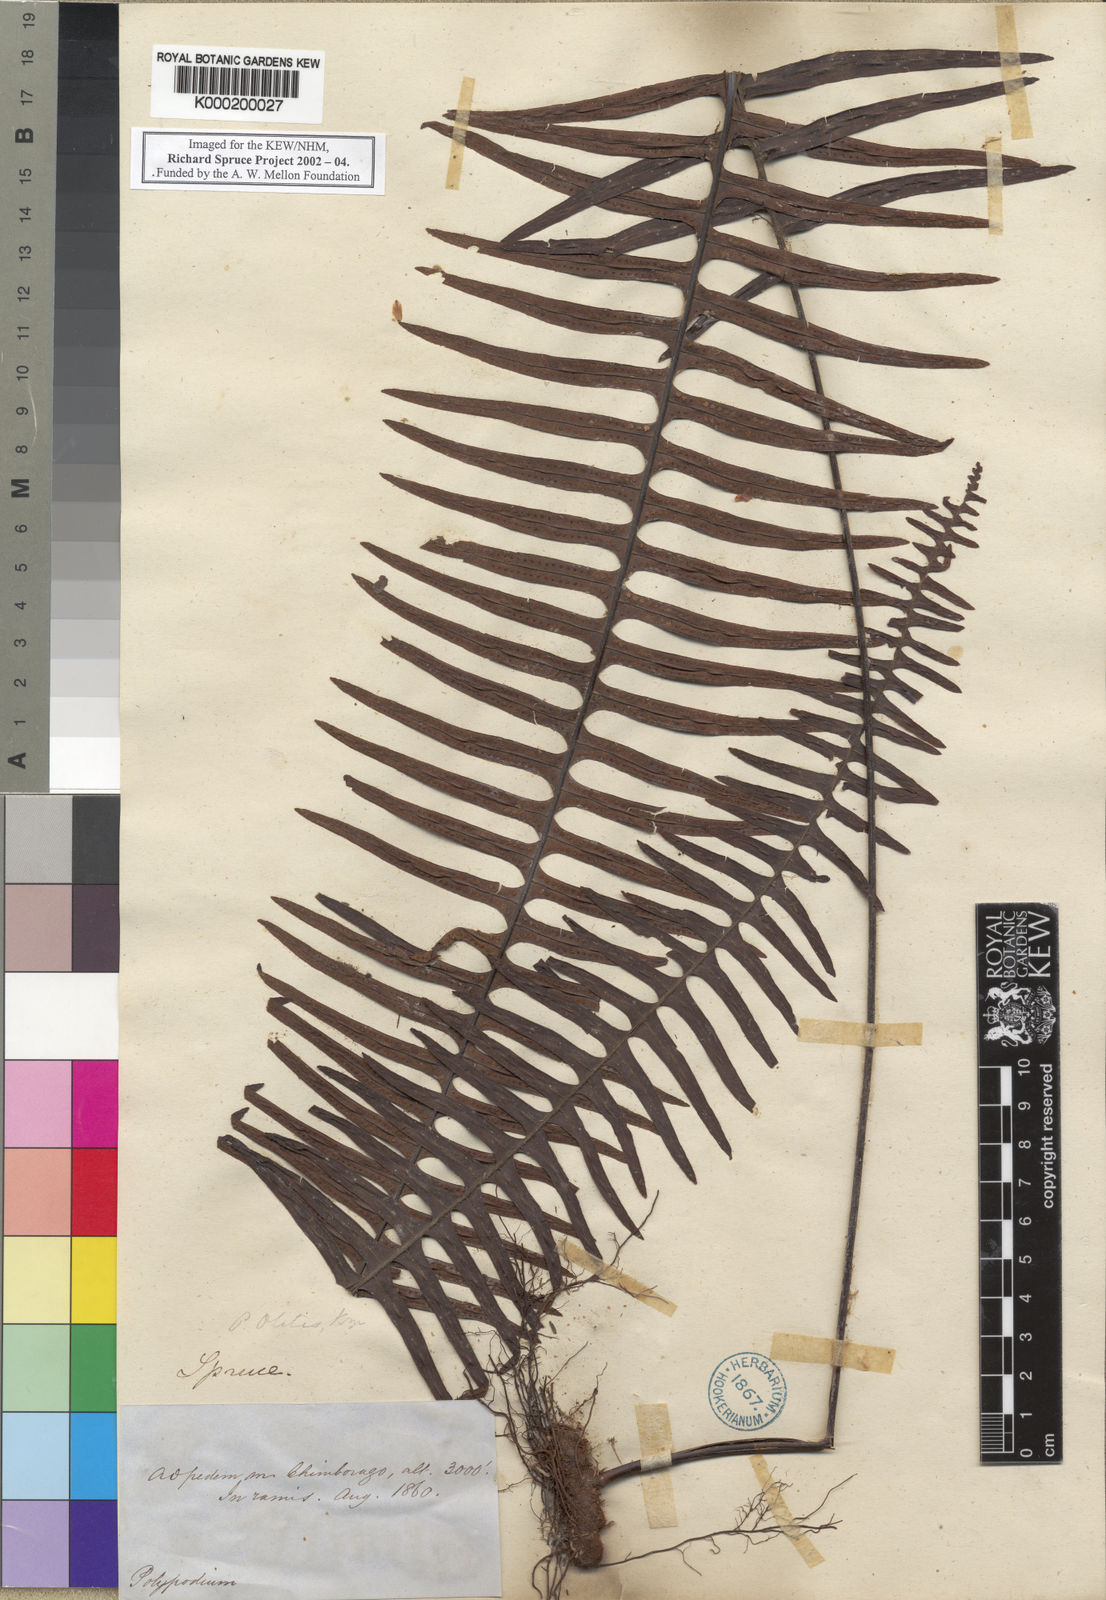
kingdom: Plantae
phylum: Tracheophyta
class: Polypodiopsida
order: Polypodiales
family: Polypodiaceae
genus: Pecluma
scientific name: Pecluma divaricata
